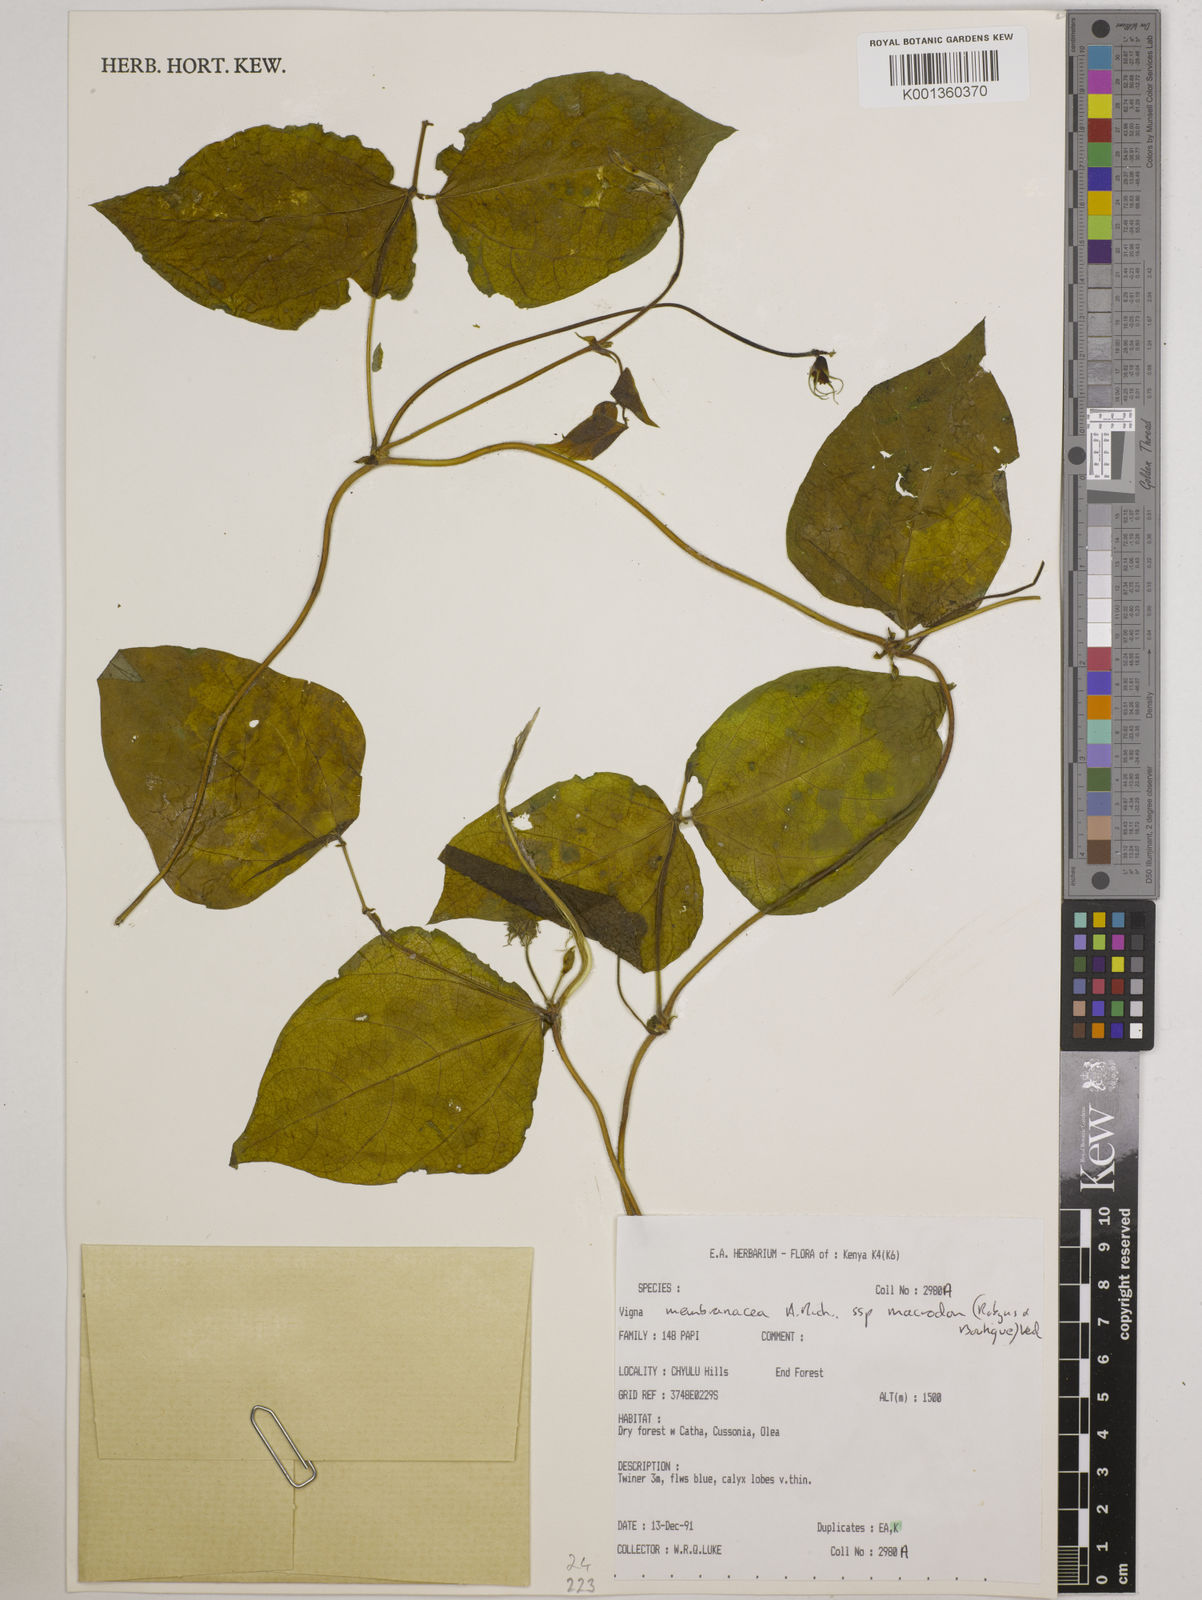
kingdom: Plantae
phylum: Tracheophyta
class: Magnoliopsida
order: Fabales
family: Fabaceae
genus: Vigna
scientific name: Vigna
